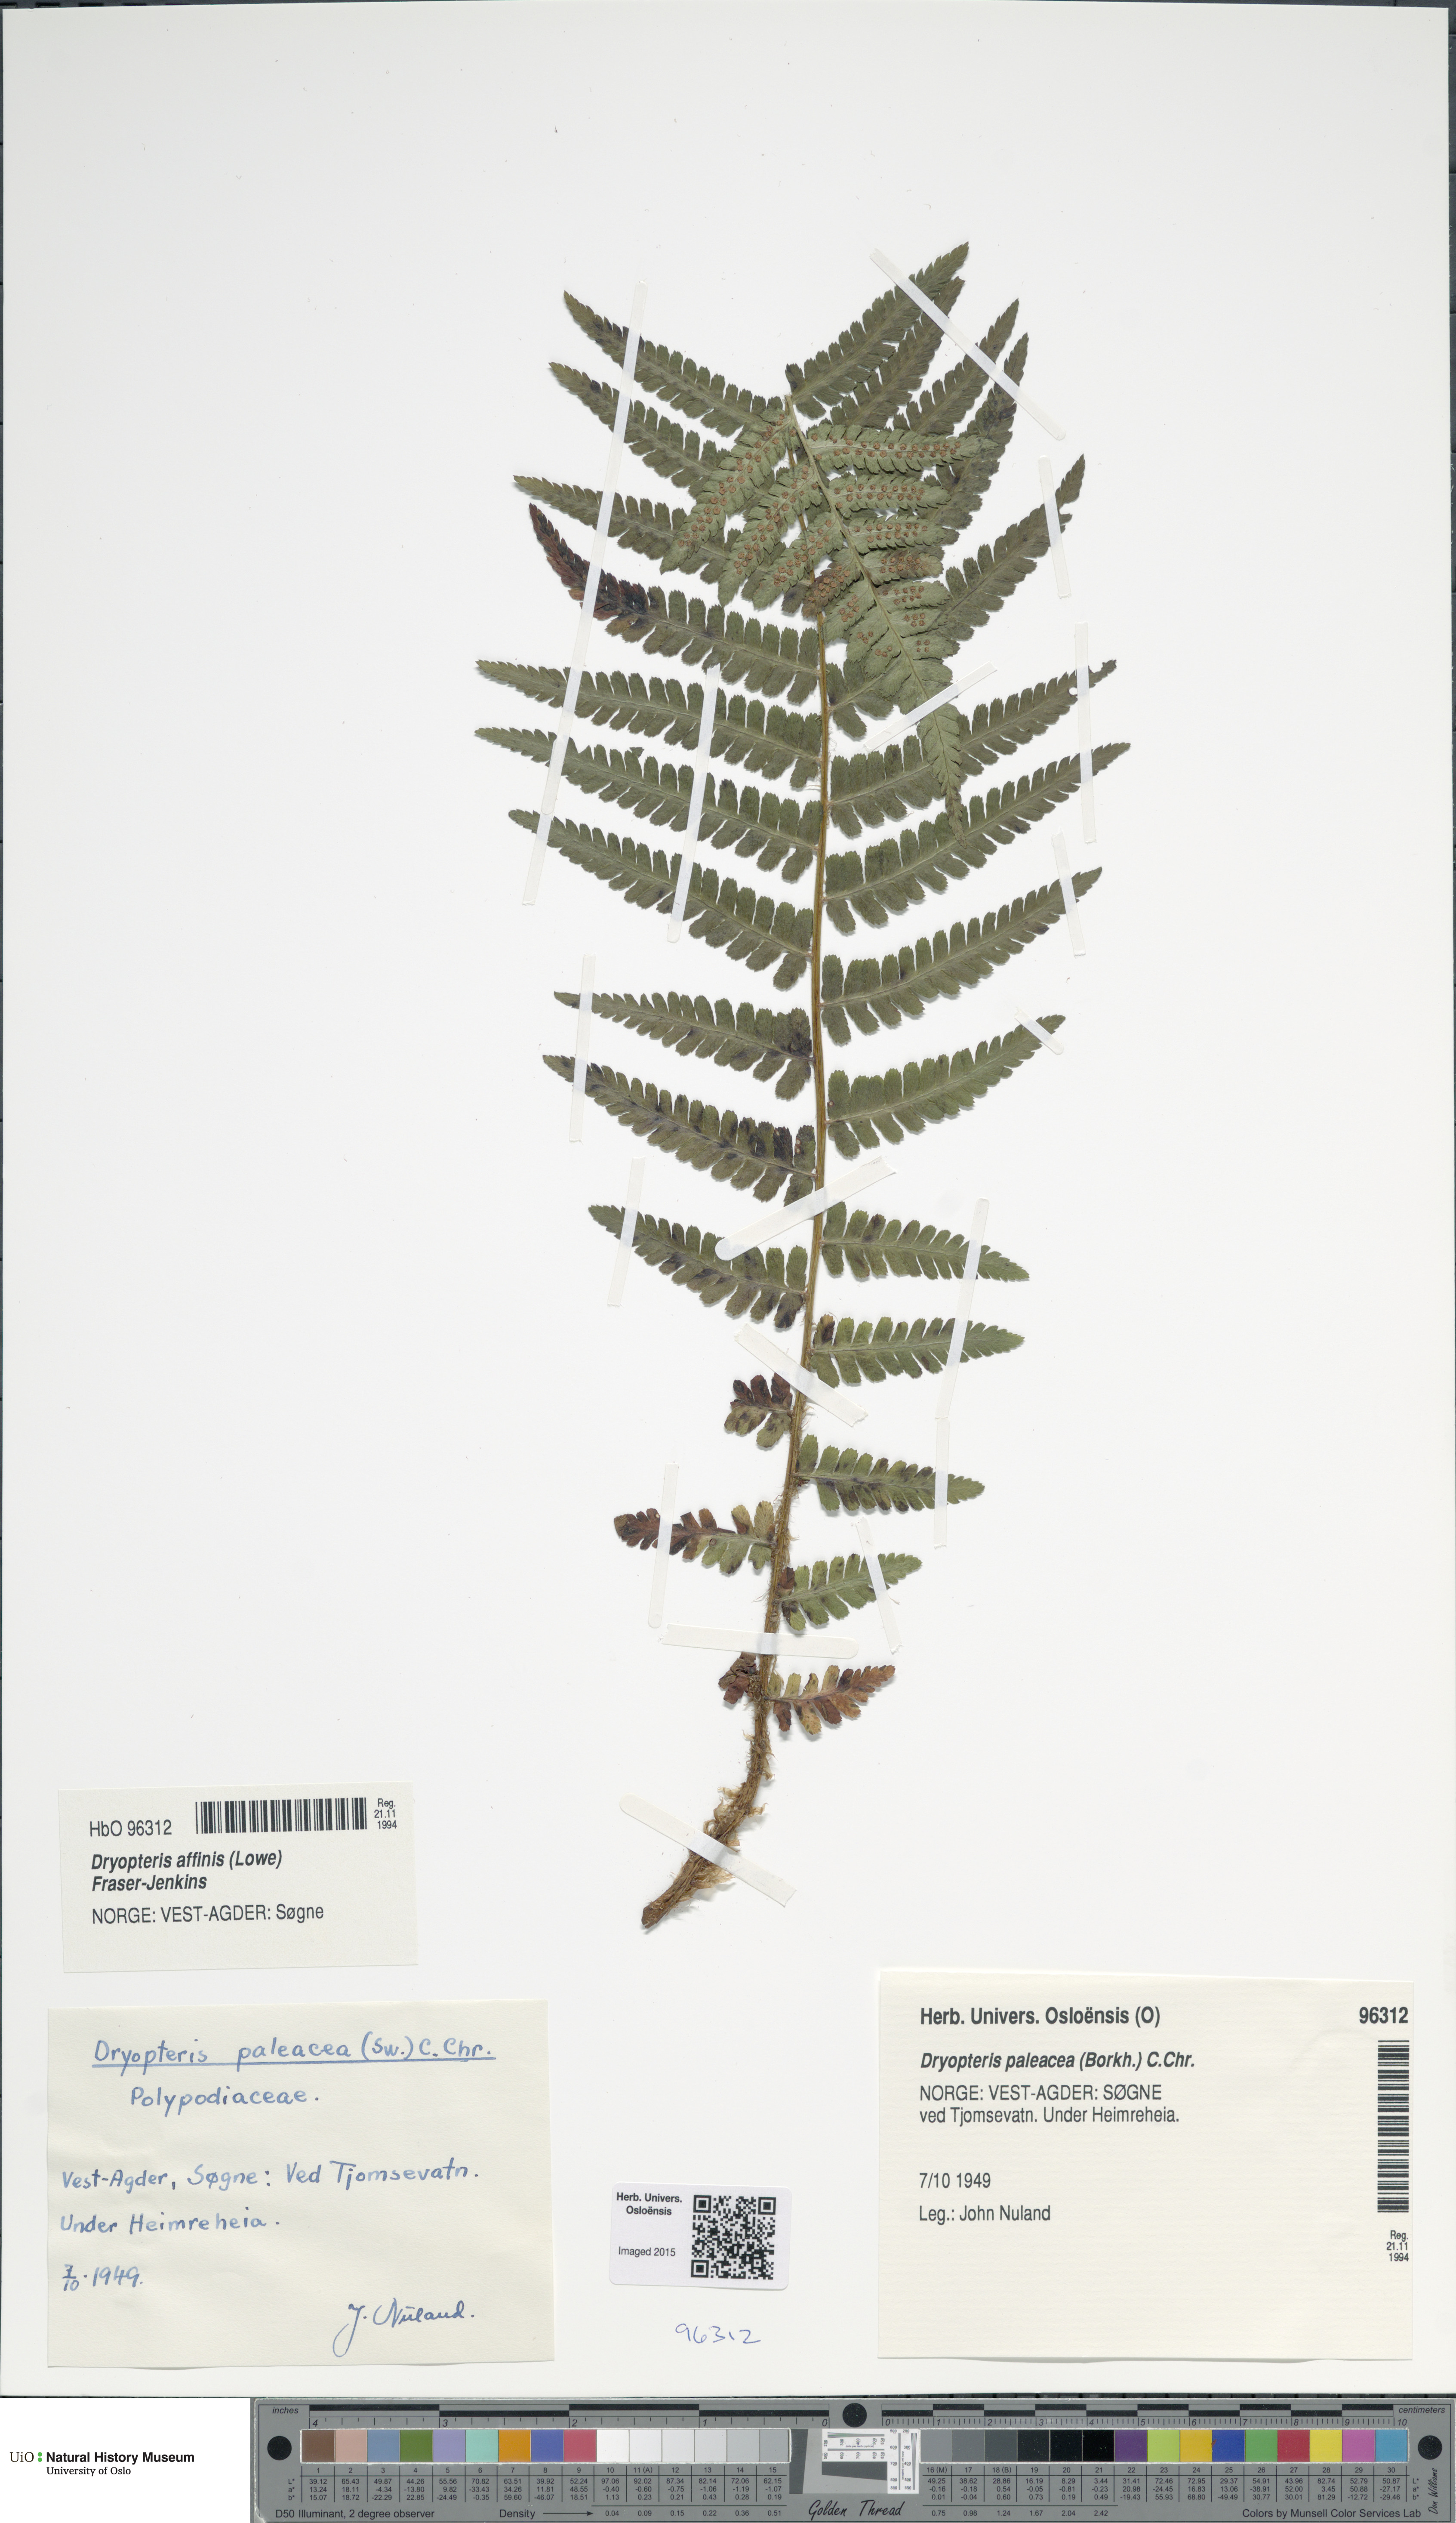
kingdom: Plantae
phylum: Tracheophyta
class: Polypodiopsida
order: Polypodiales
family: Dryopteridaceae
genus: Dryopteris
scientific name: Dryopteris wallichiana
